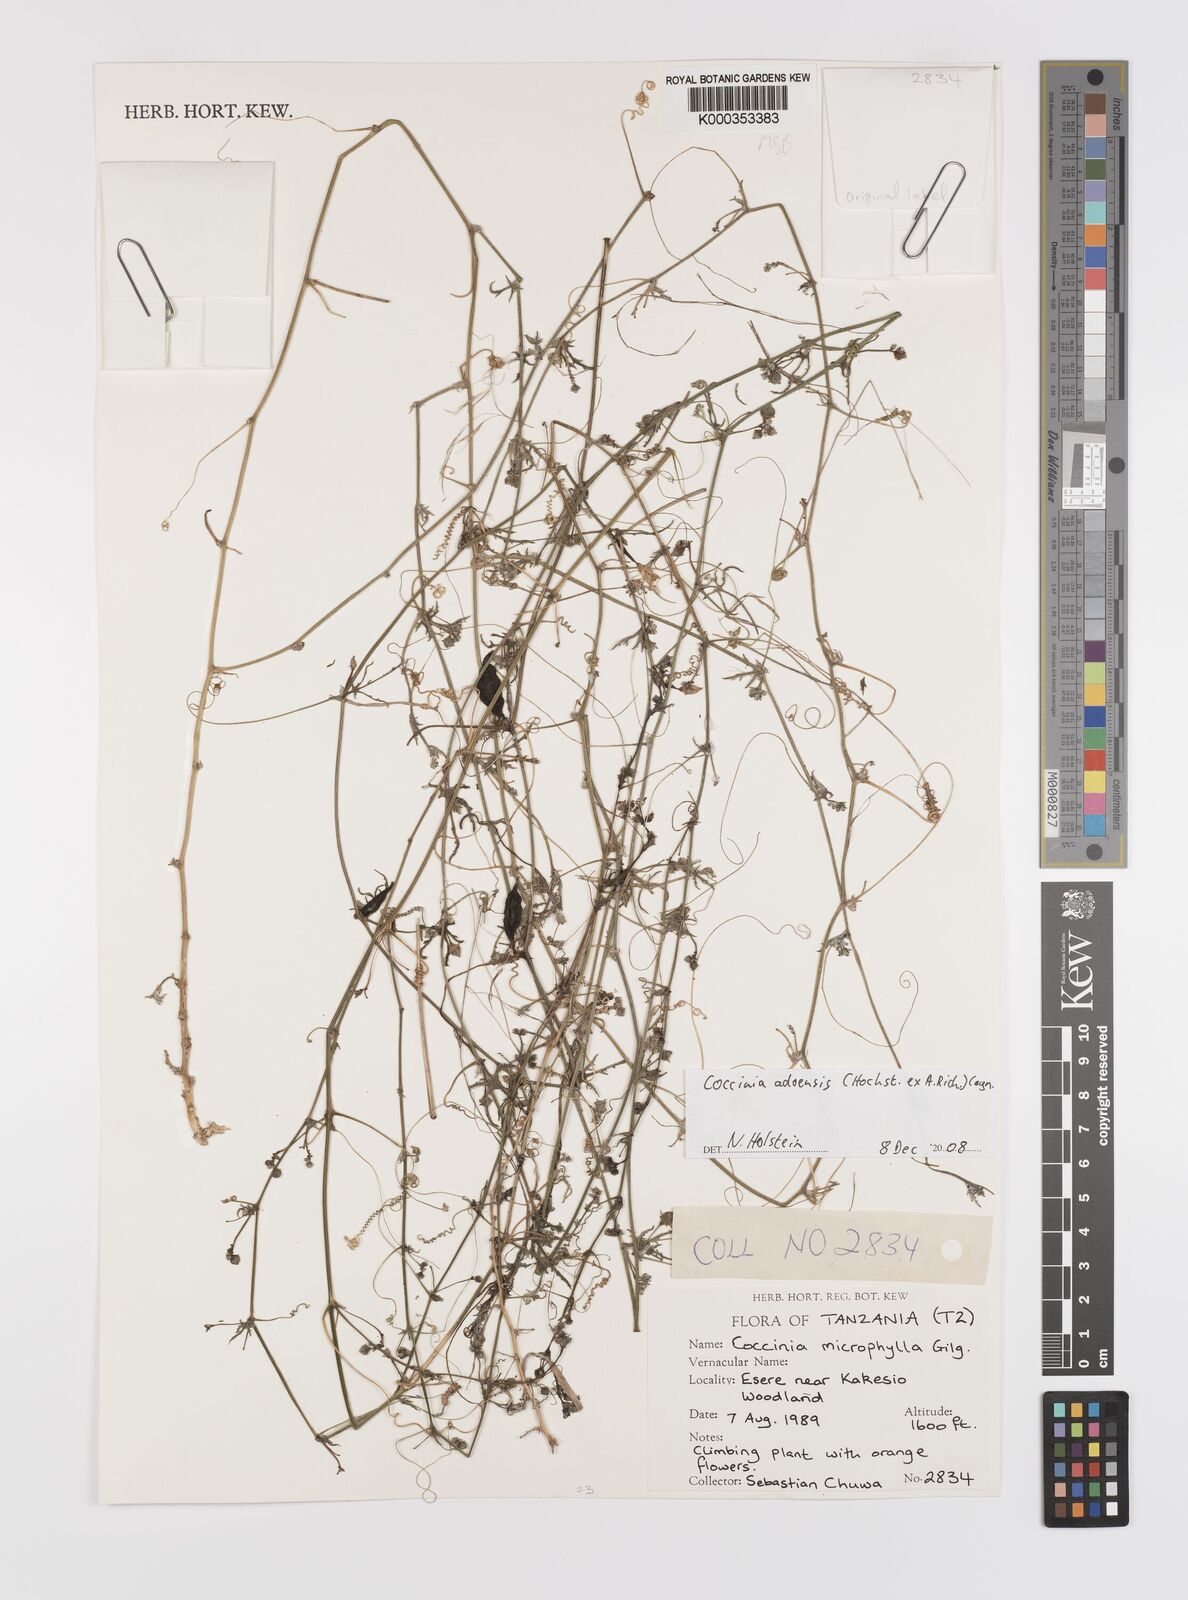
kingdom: Plantae
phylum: Tracheophyta
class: Magnoliopsida
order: Cucurbitales
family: Cucurbitaceae
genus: Coccinia
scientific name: Coccinia microphylla
